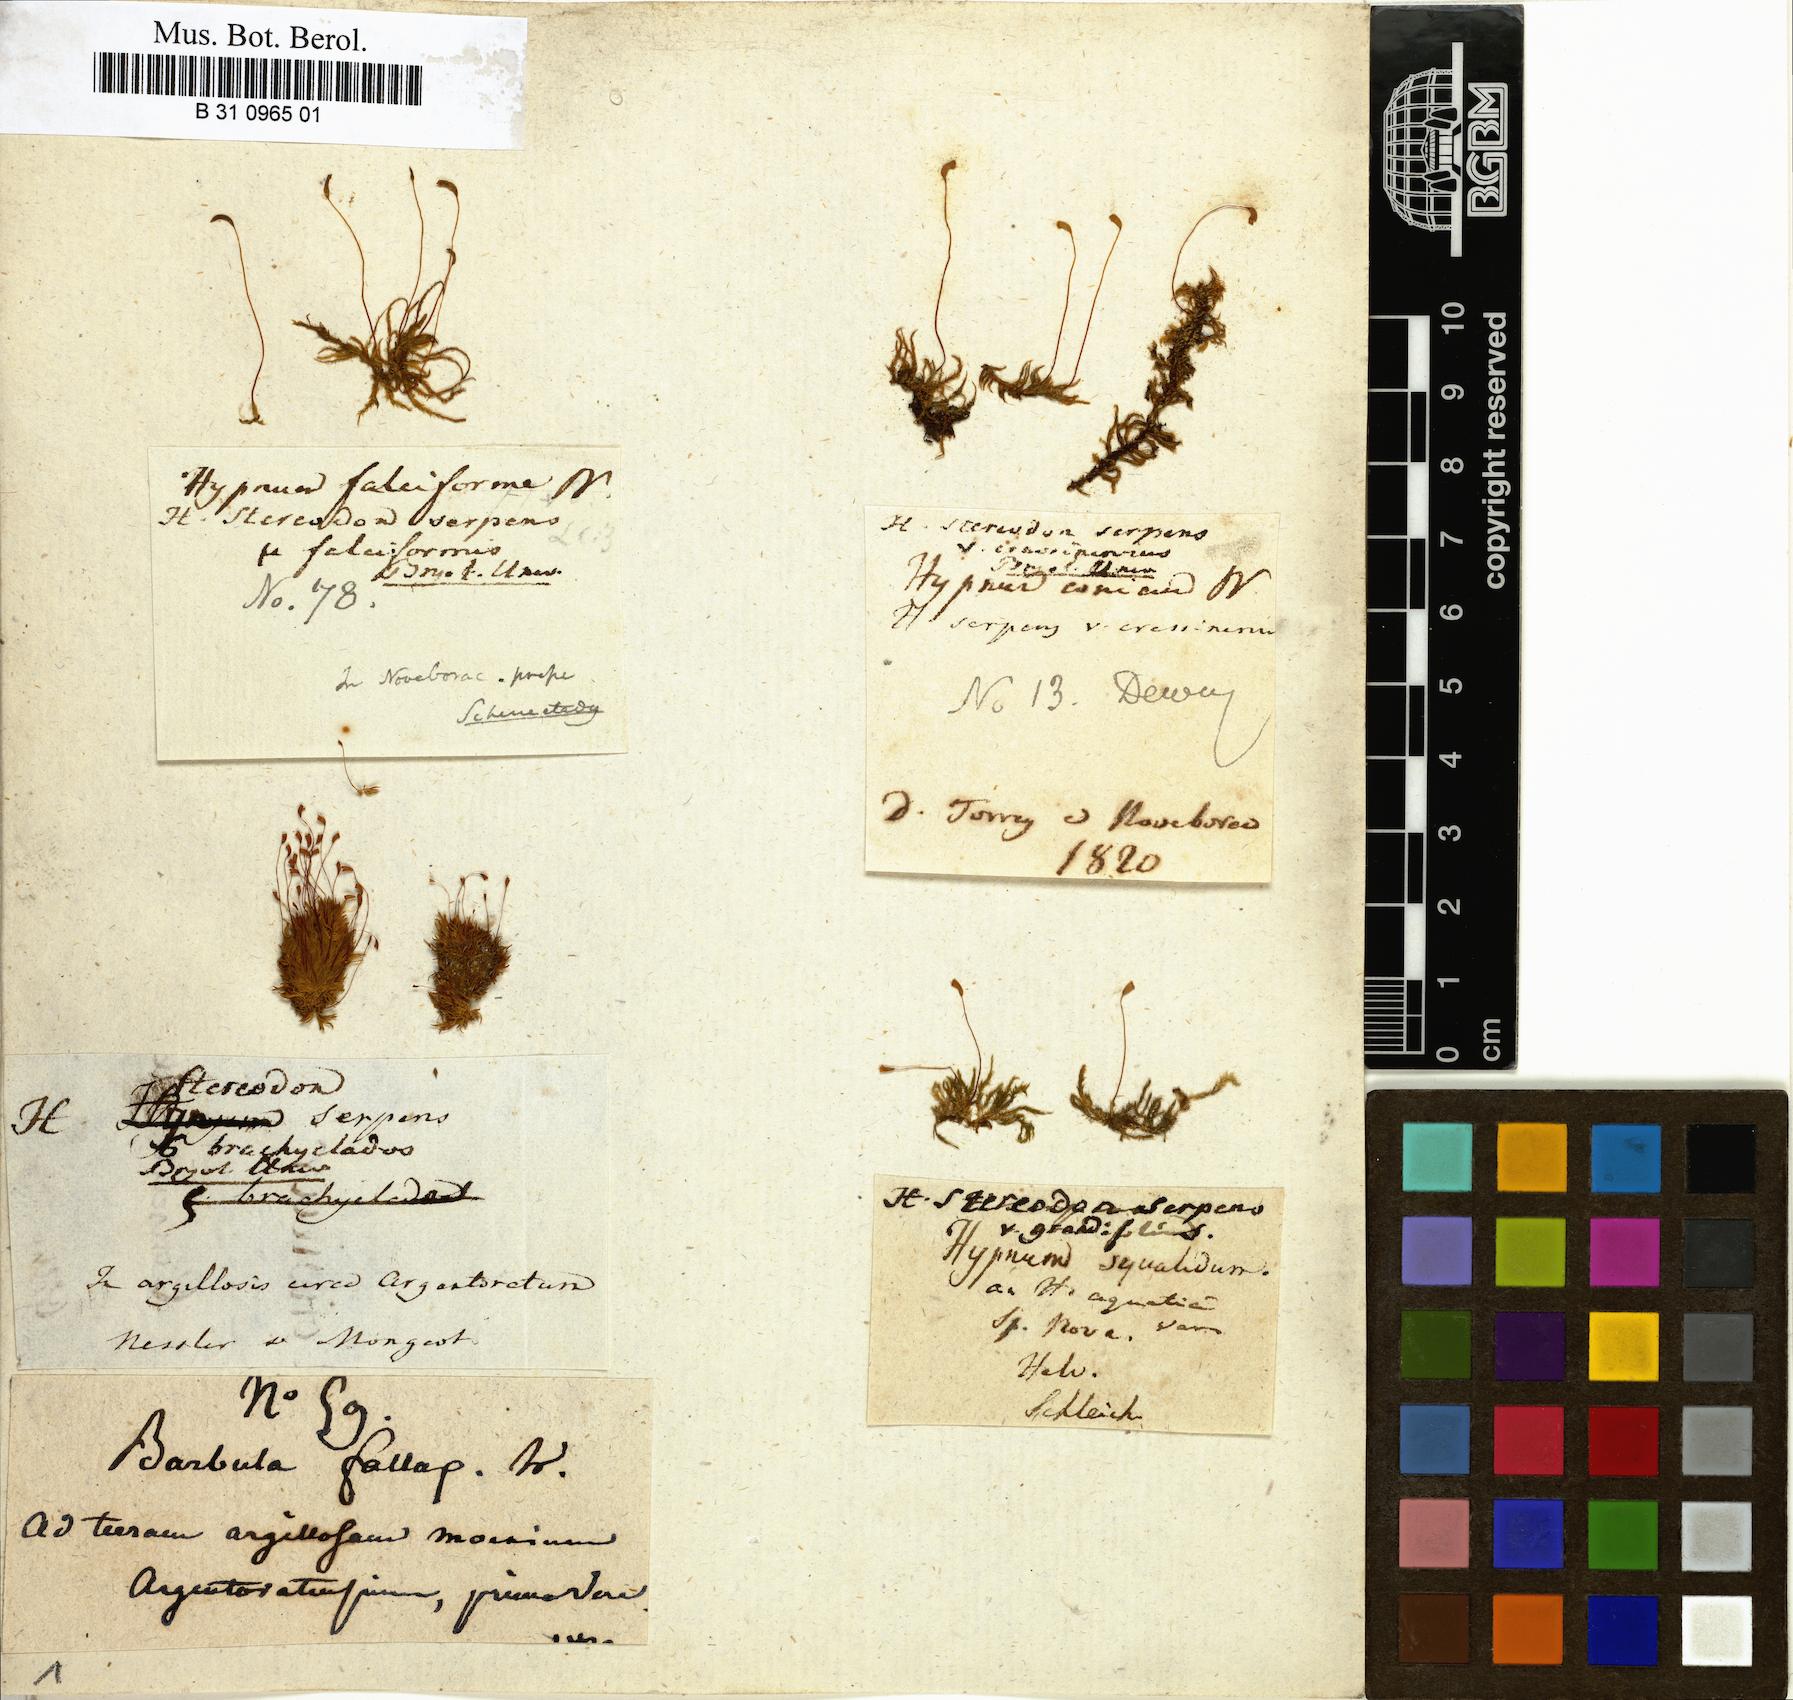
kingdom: Plantae
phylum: Bryophyta
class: Bryopsida
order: Hypnales
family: Amblystegiaceae
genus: Amblystegium
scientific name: Amblystegium serpens
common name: Jurkatzka's feather moss
